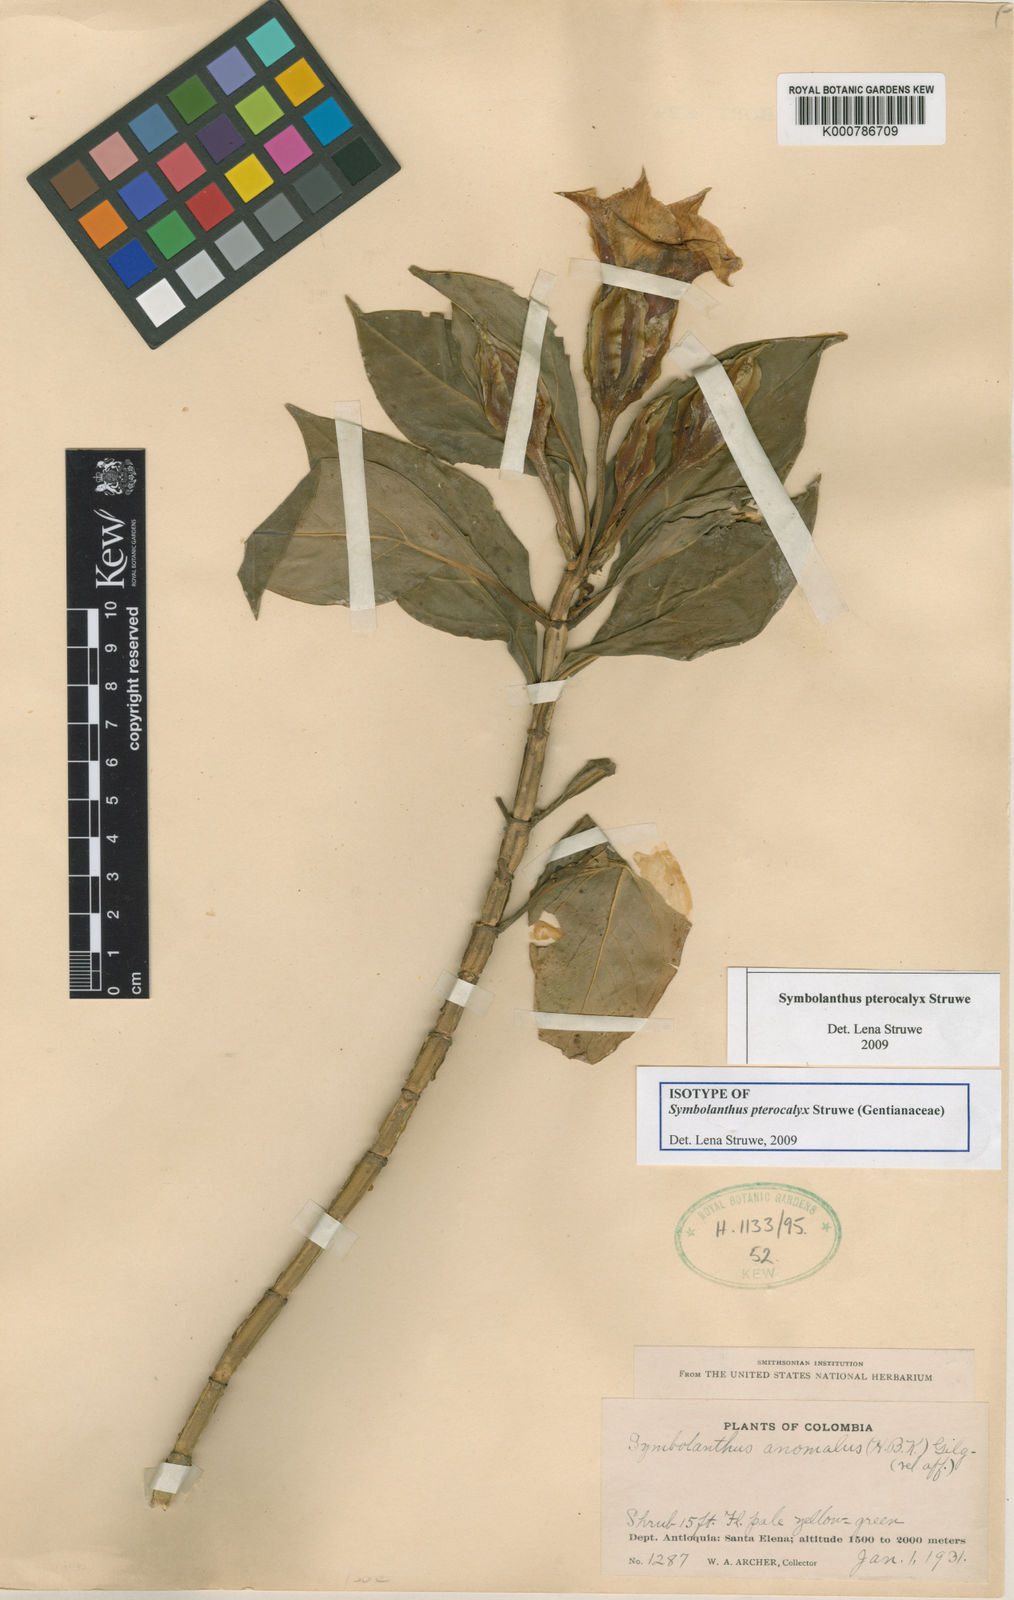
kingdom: Plantae
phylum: Tracheophyta
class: Magnoliopsida
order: Gentianales
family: Gentianaceae
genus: Symbolanthus
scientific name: Symbolanthus pterocalyx
